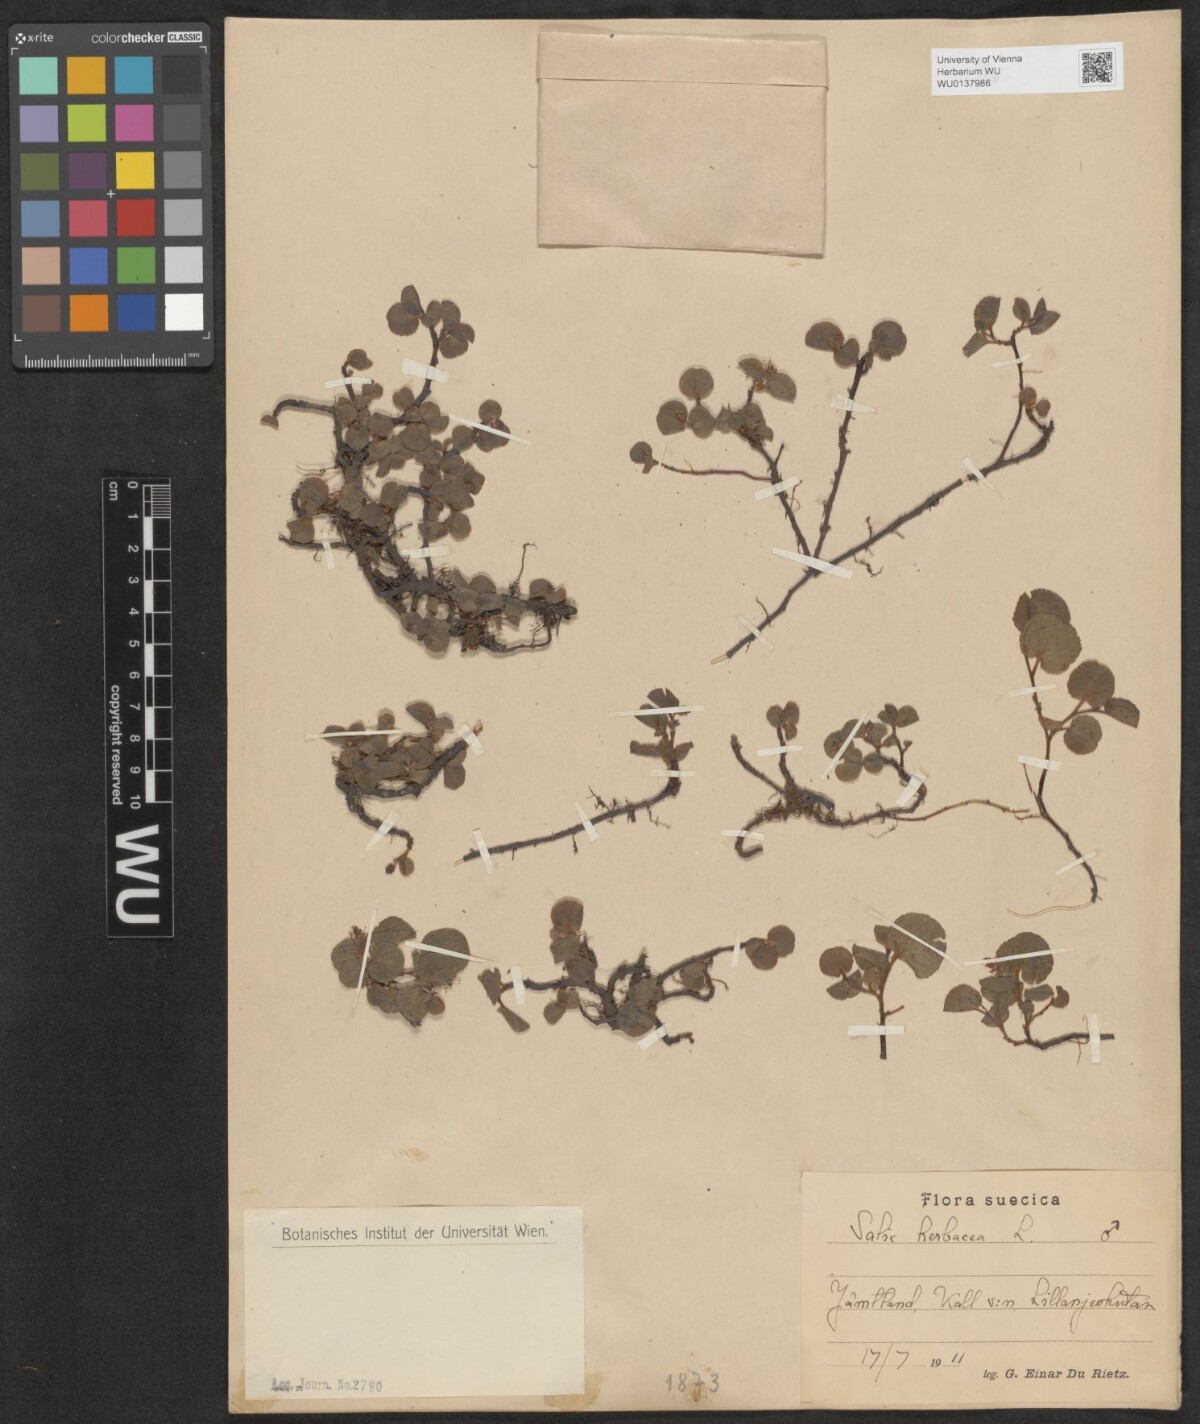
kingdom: Plantae
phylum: Tracheophyta
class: Magnoliopsida
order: Malpighiales
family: Salicaceae
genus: Salix
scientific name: Salix herbacea
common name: Dwarf willow
